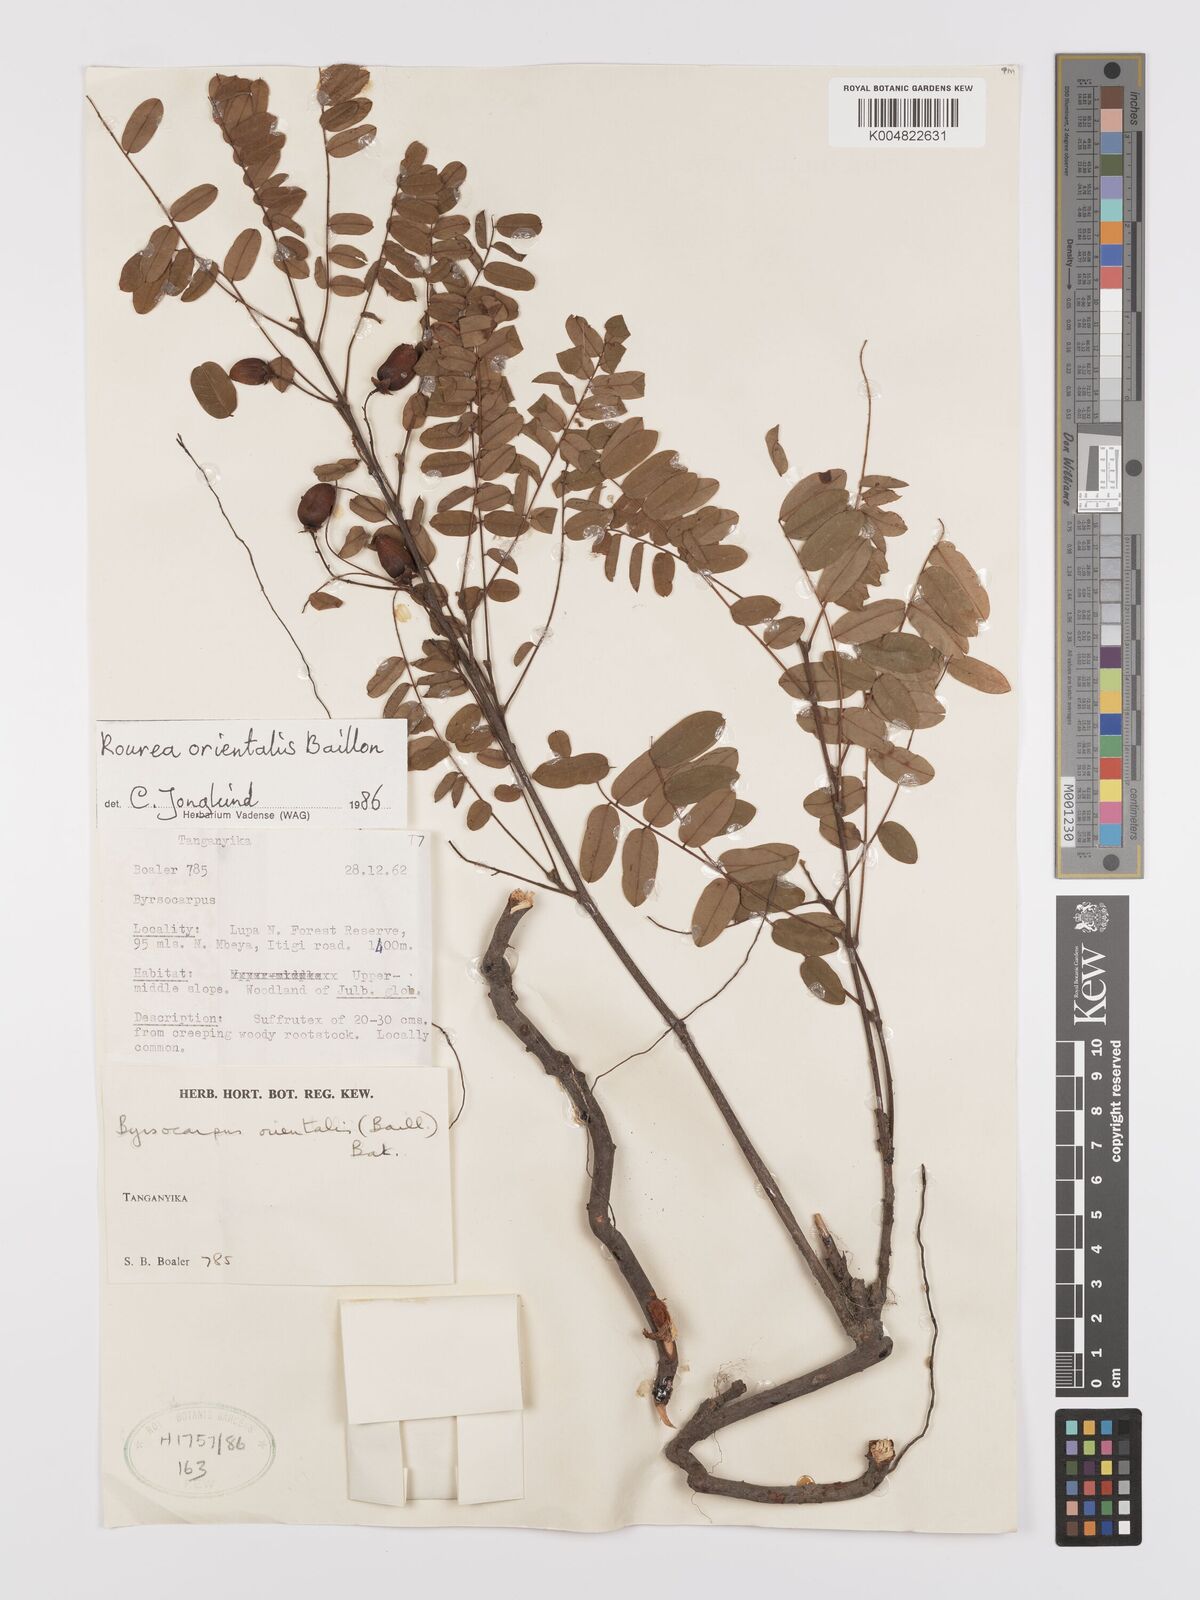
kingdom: Plantae
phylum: Tracheophyta
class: Magnoliopsida
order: Oxalidales
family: Connaraceae
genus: Rourea
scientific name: Rourea orientalis
